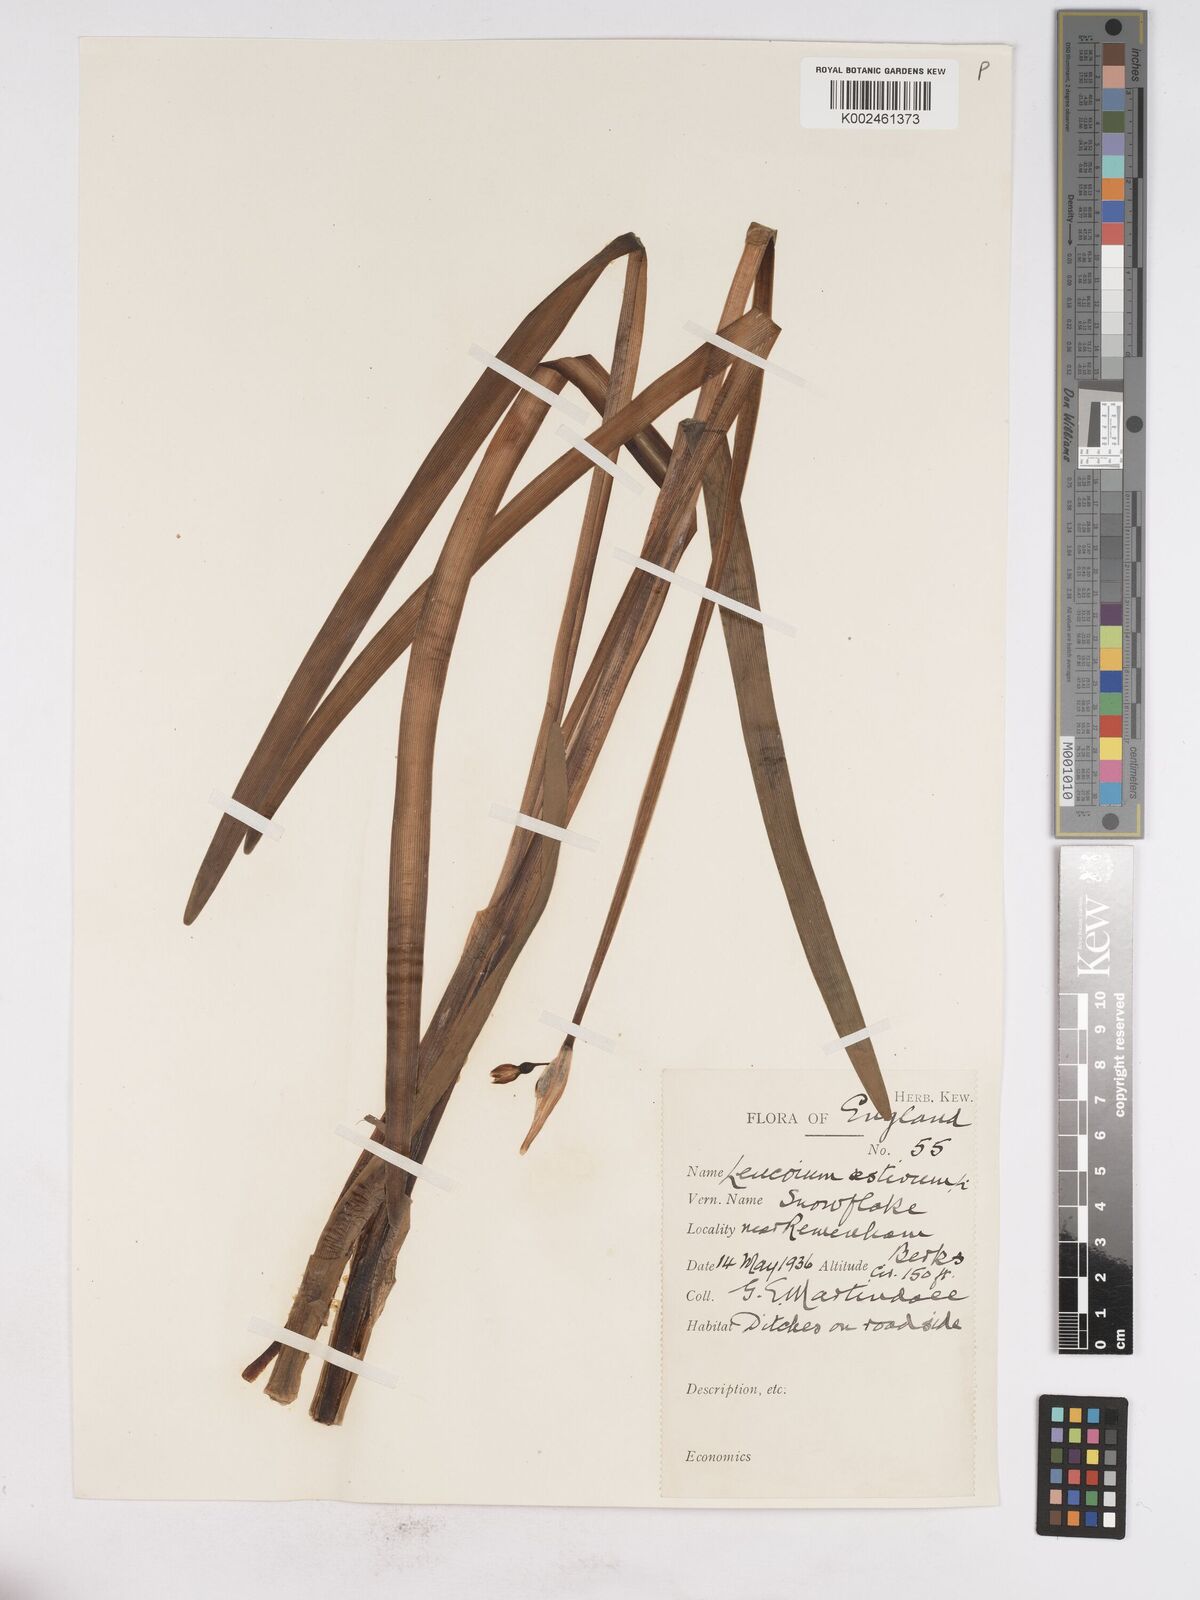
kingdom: Plantae
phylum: Tracheophyta
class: Liliopsida
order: Asparagales
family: Amaryllidaceae
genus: Leucojum
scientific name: Leucojum aestivum
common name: Summer snowflake
